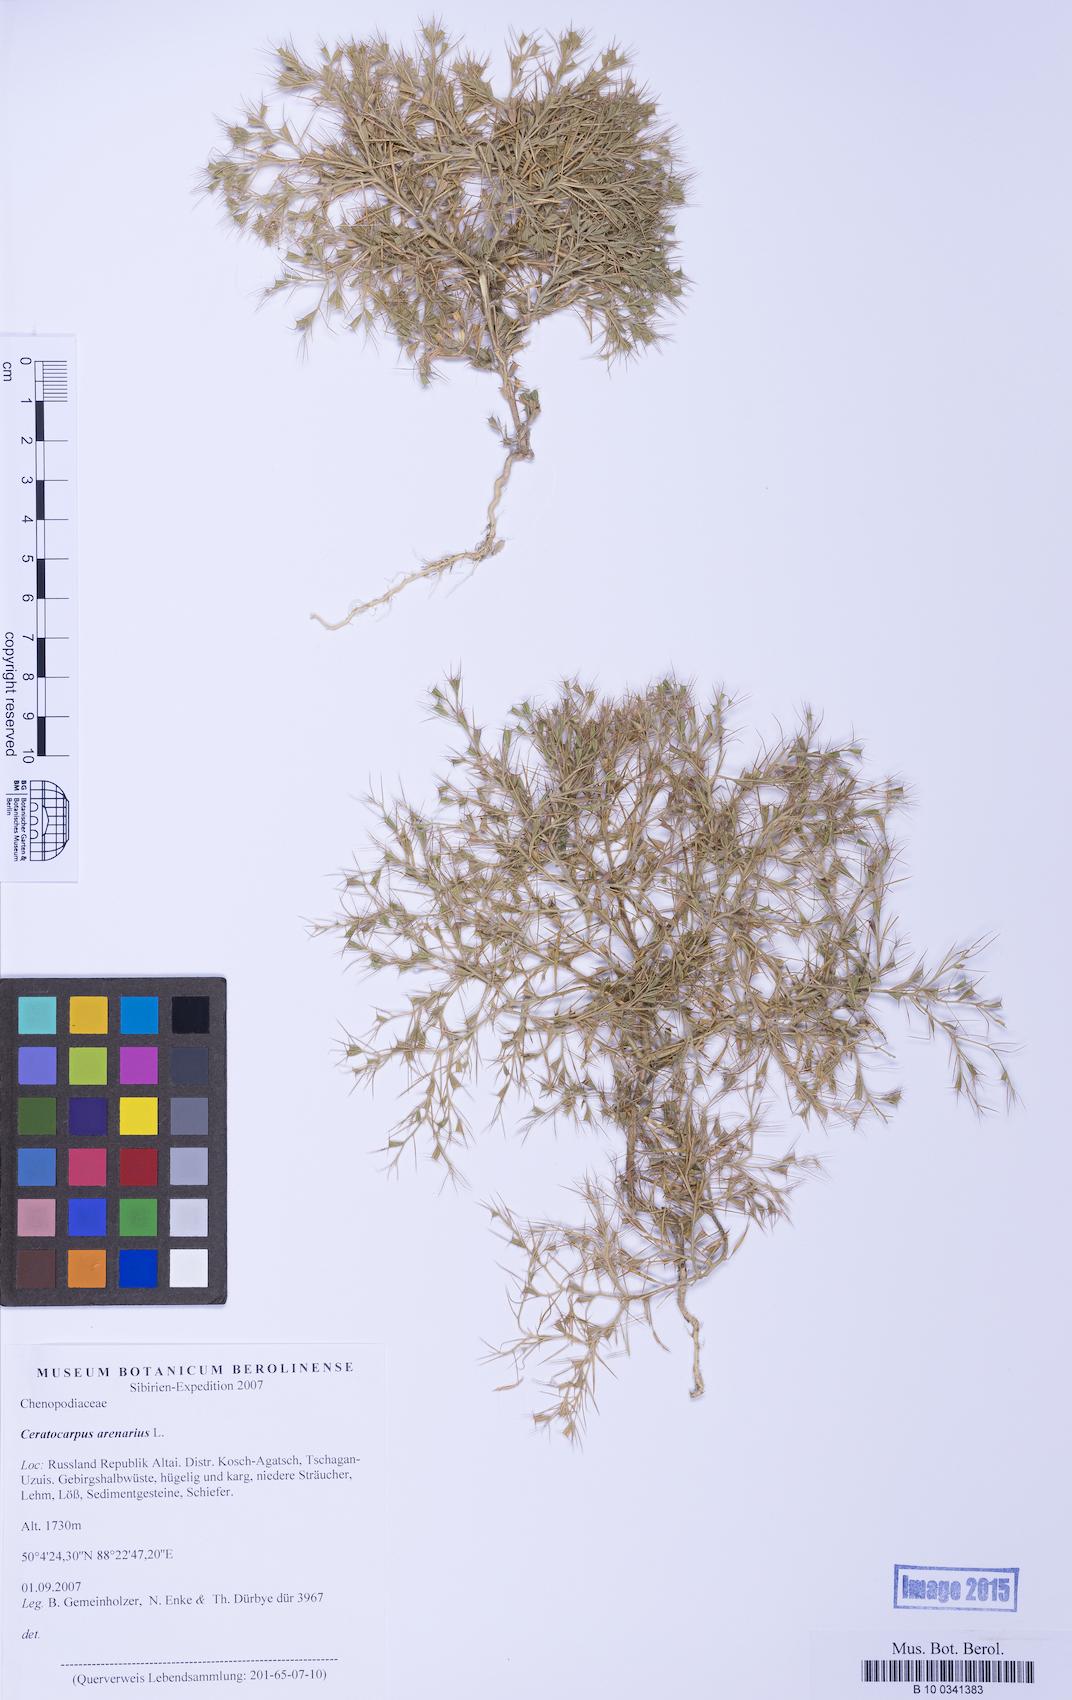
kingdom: Plantae
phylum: Tracheophyta
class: Magnoliopsida
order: Caryophyllales
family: Amaranthaceae
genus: Ceratocarpus
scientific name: Ceratocarpus arenarius
